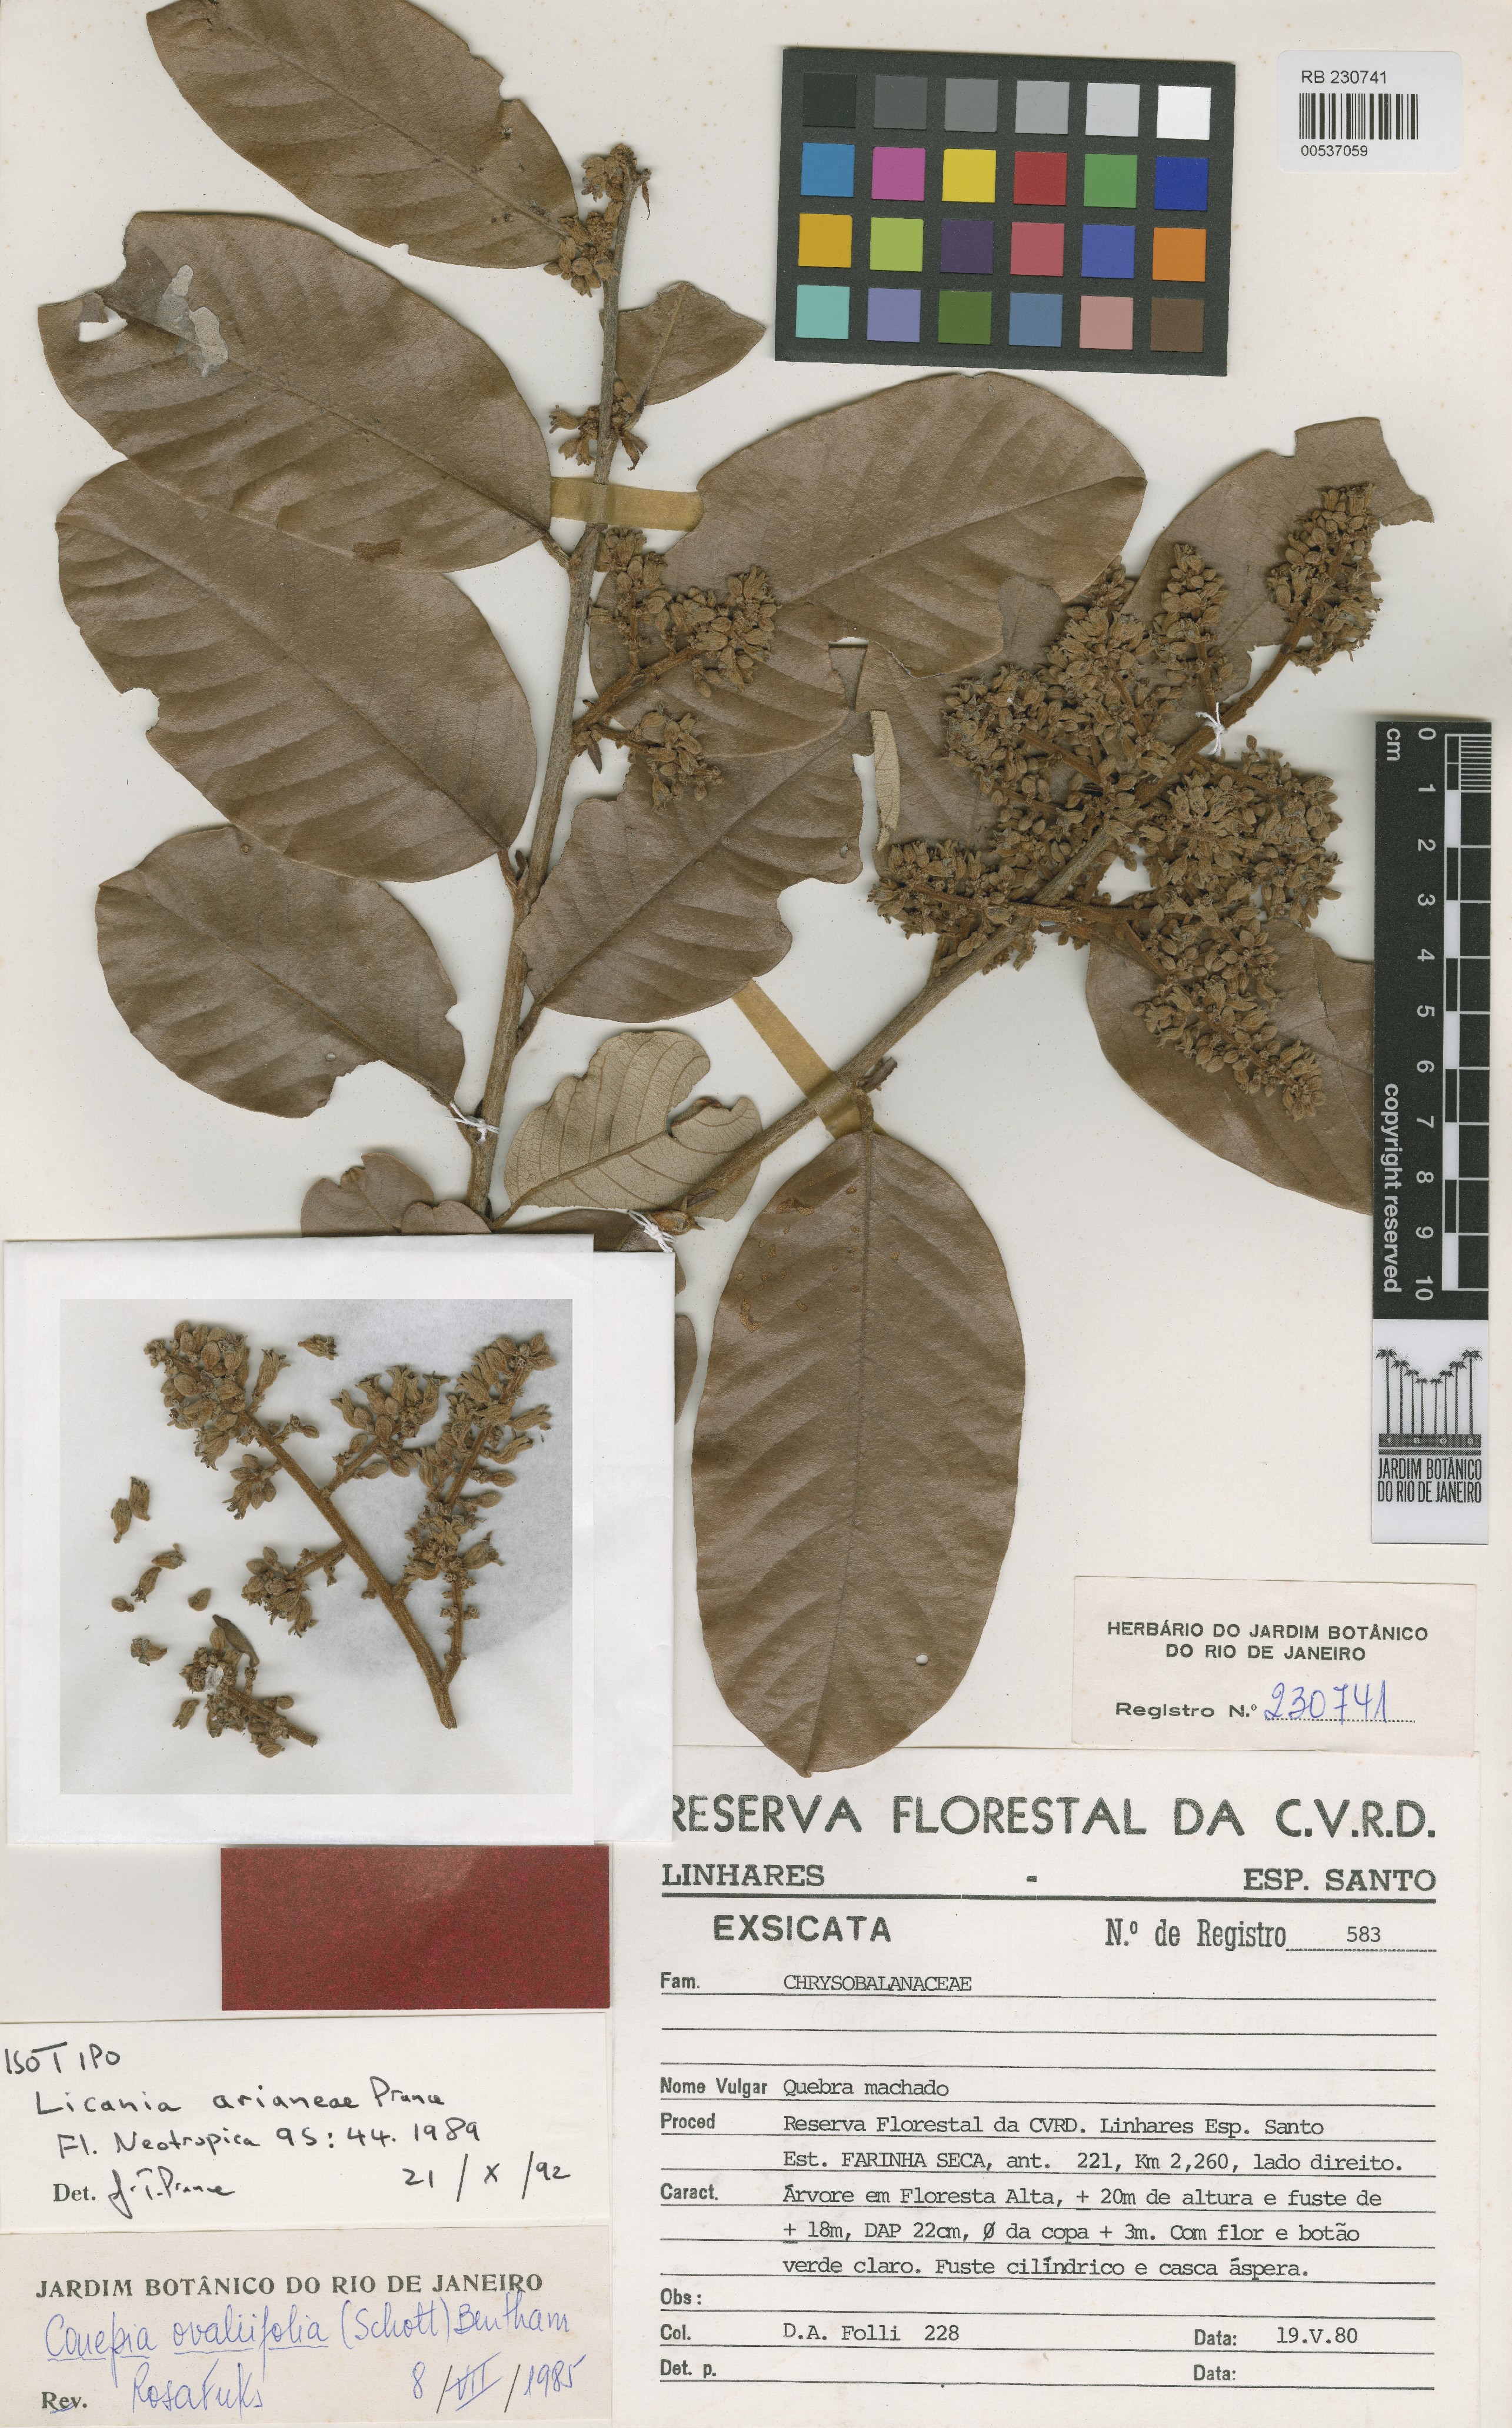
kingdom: Plantae
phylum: Tracheophyta
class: Magnoliopsida
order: Malpighiales
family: Chrysobalanaceae
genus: Licania
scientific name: Licania arianeae
